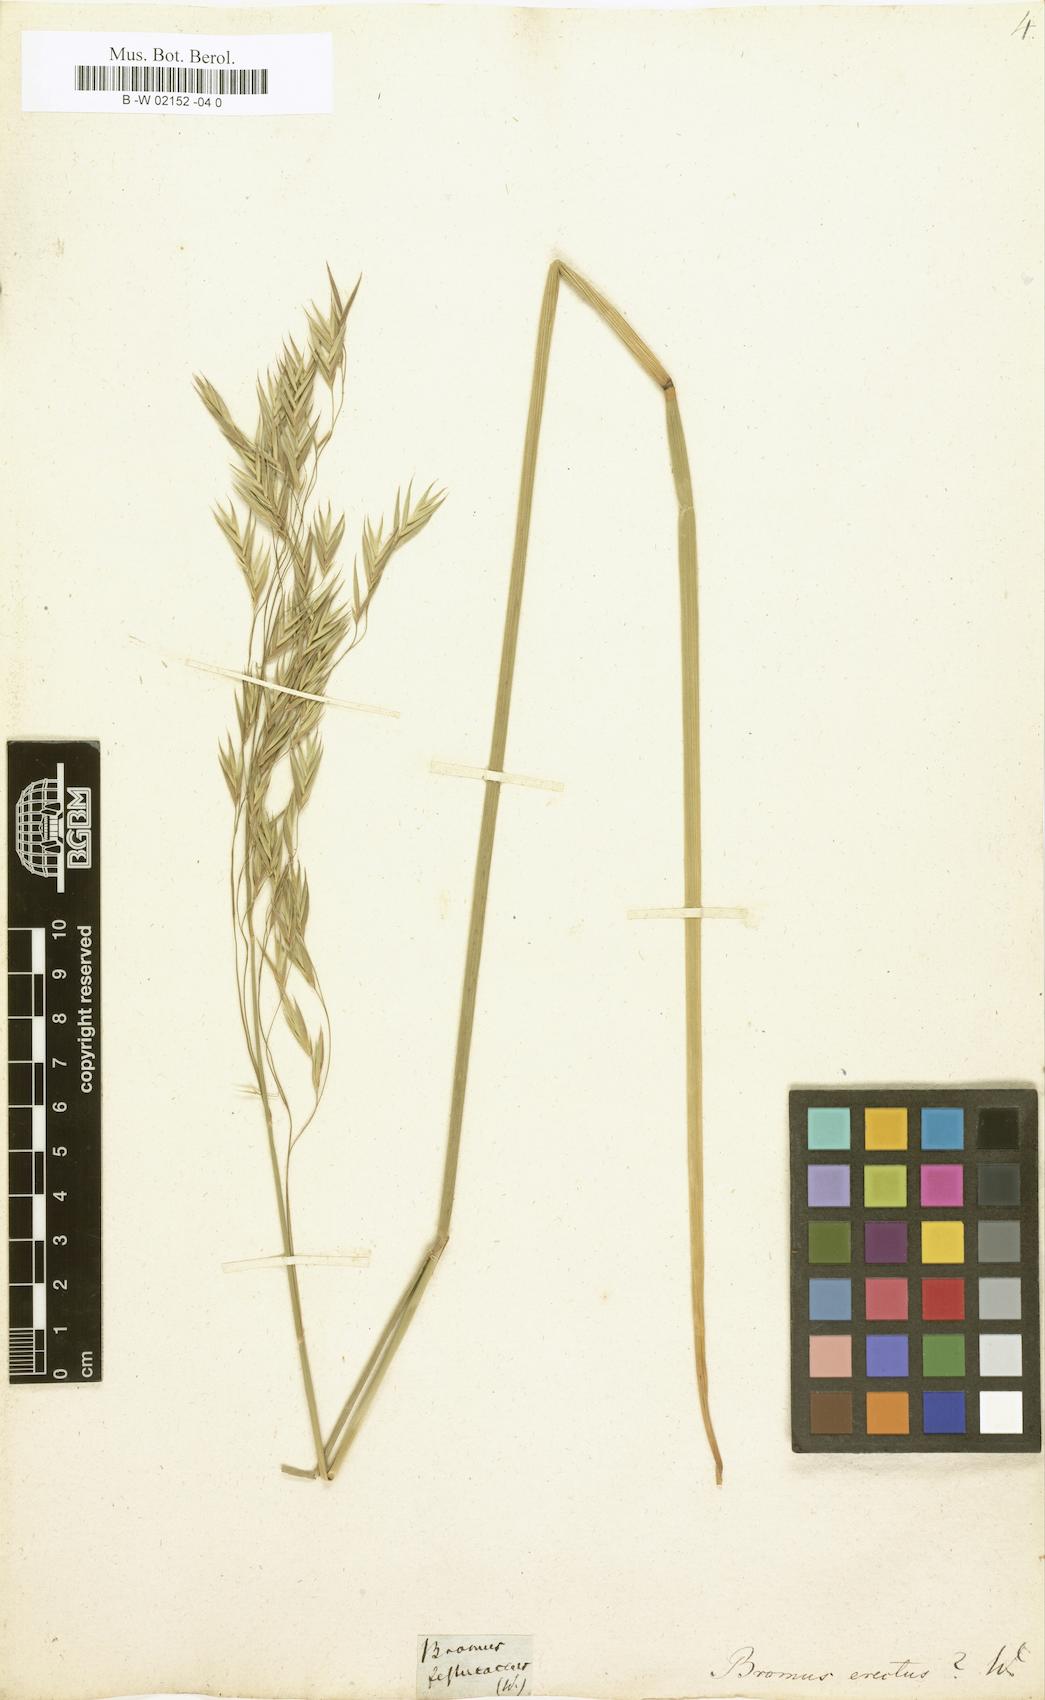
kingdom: Plantae
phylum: Tracheophyta
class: Liliopsida
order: Poales
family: Poaceae
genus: Bromus
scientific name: Bromus erectus
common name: Erect brome
